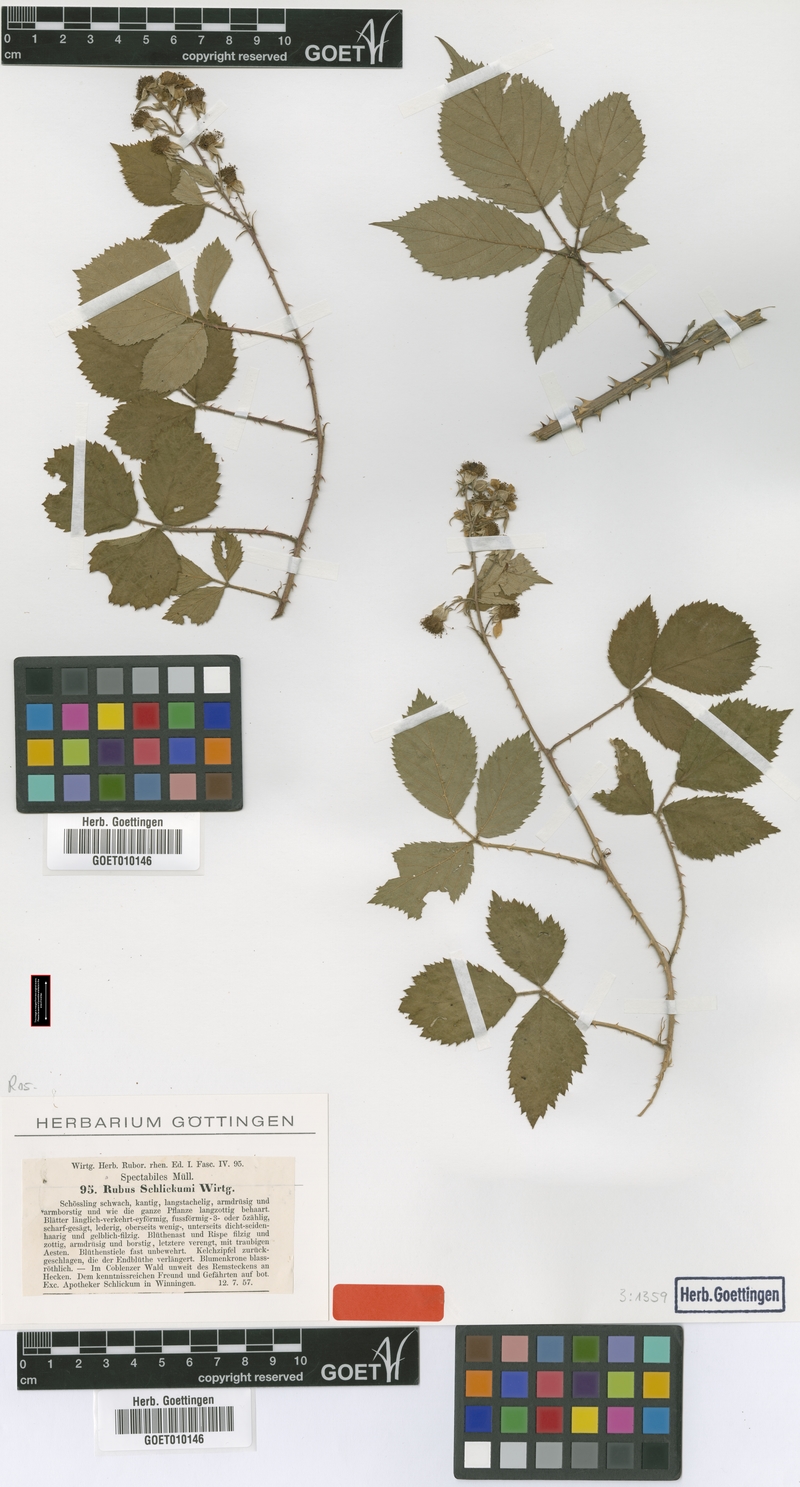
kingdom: Plantae
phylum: Tracheophyta
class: Magnoliopsida
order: Rosales
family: Rosaceae
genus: Rubus
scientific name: Rubus schlickumii
